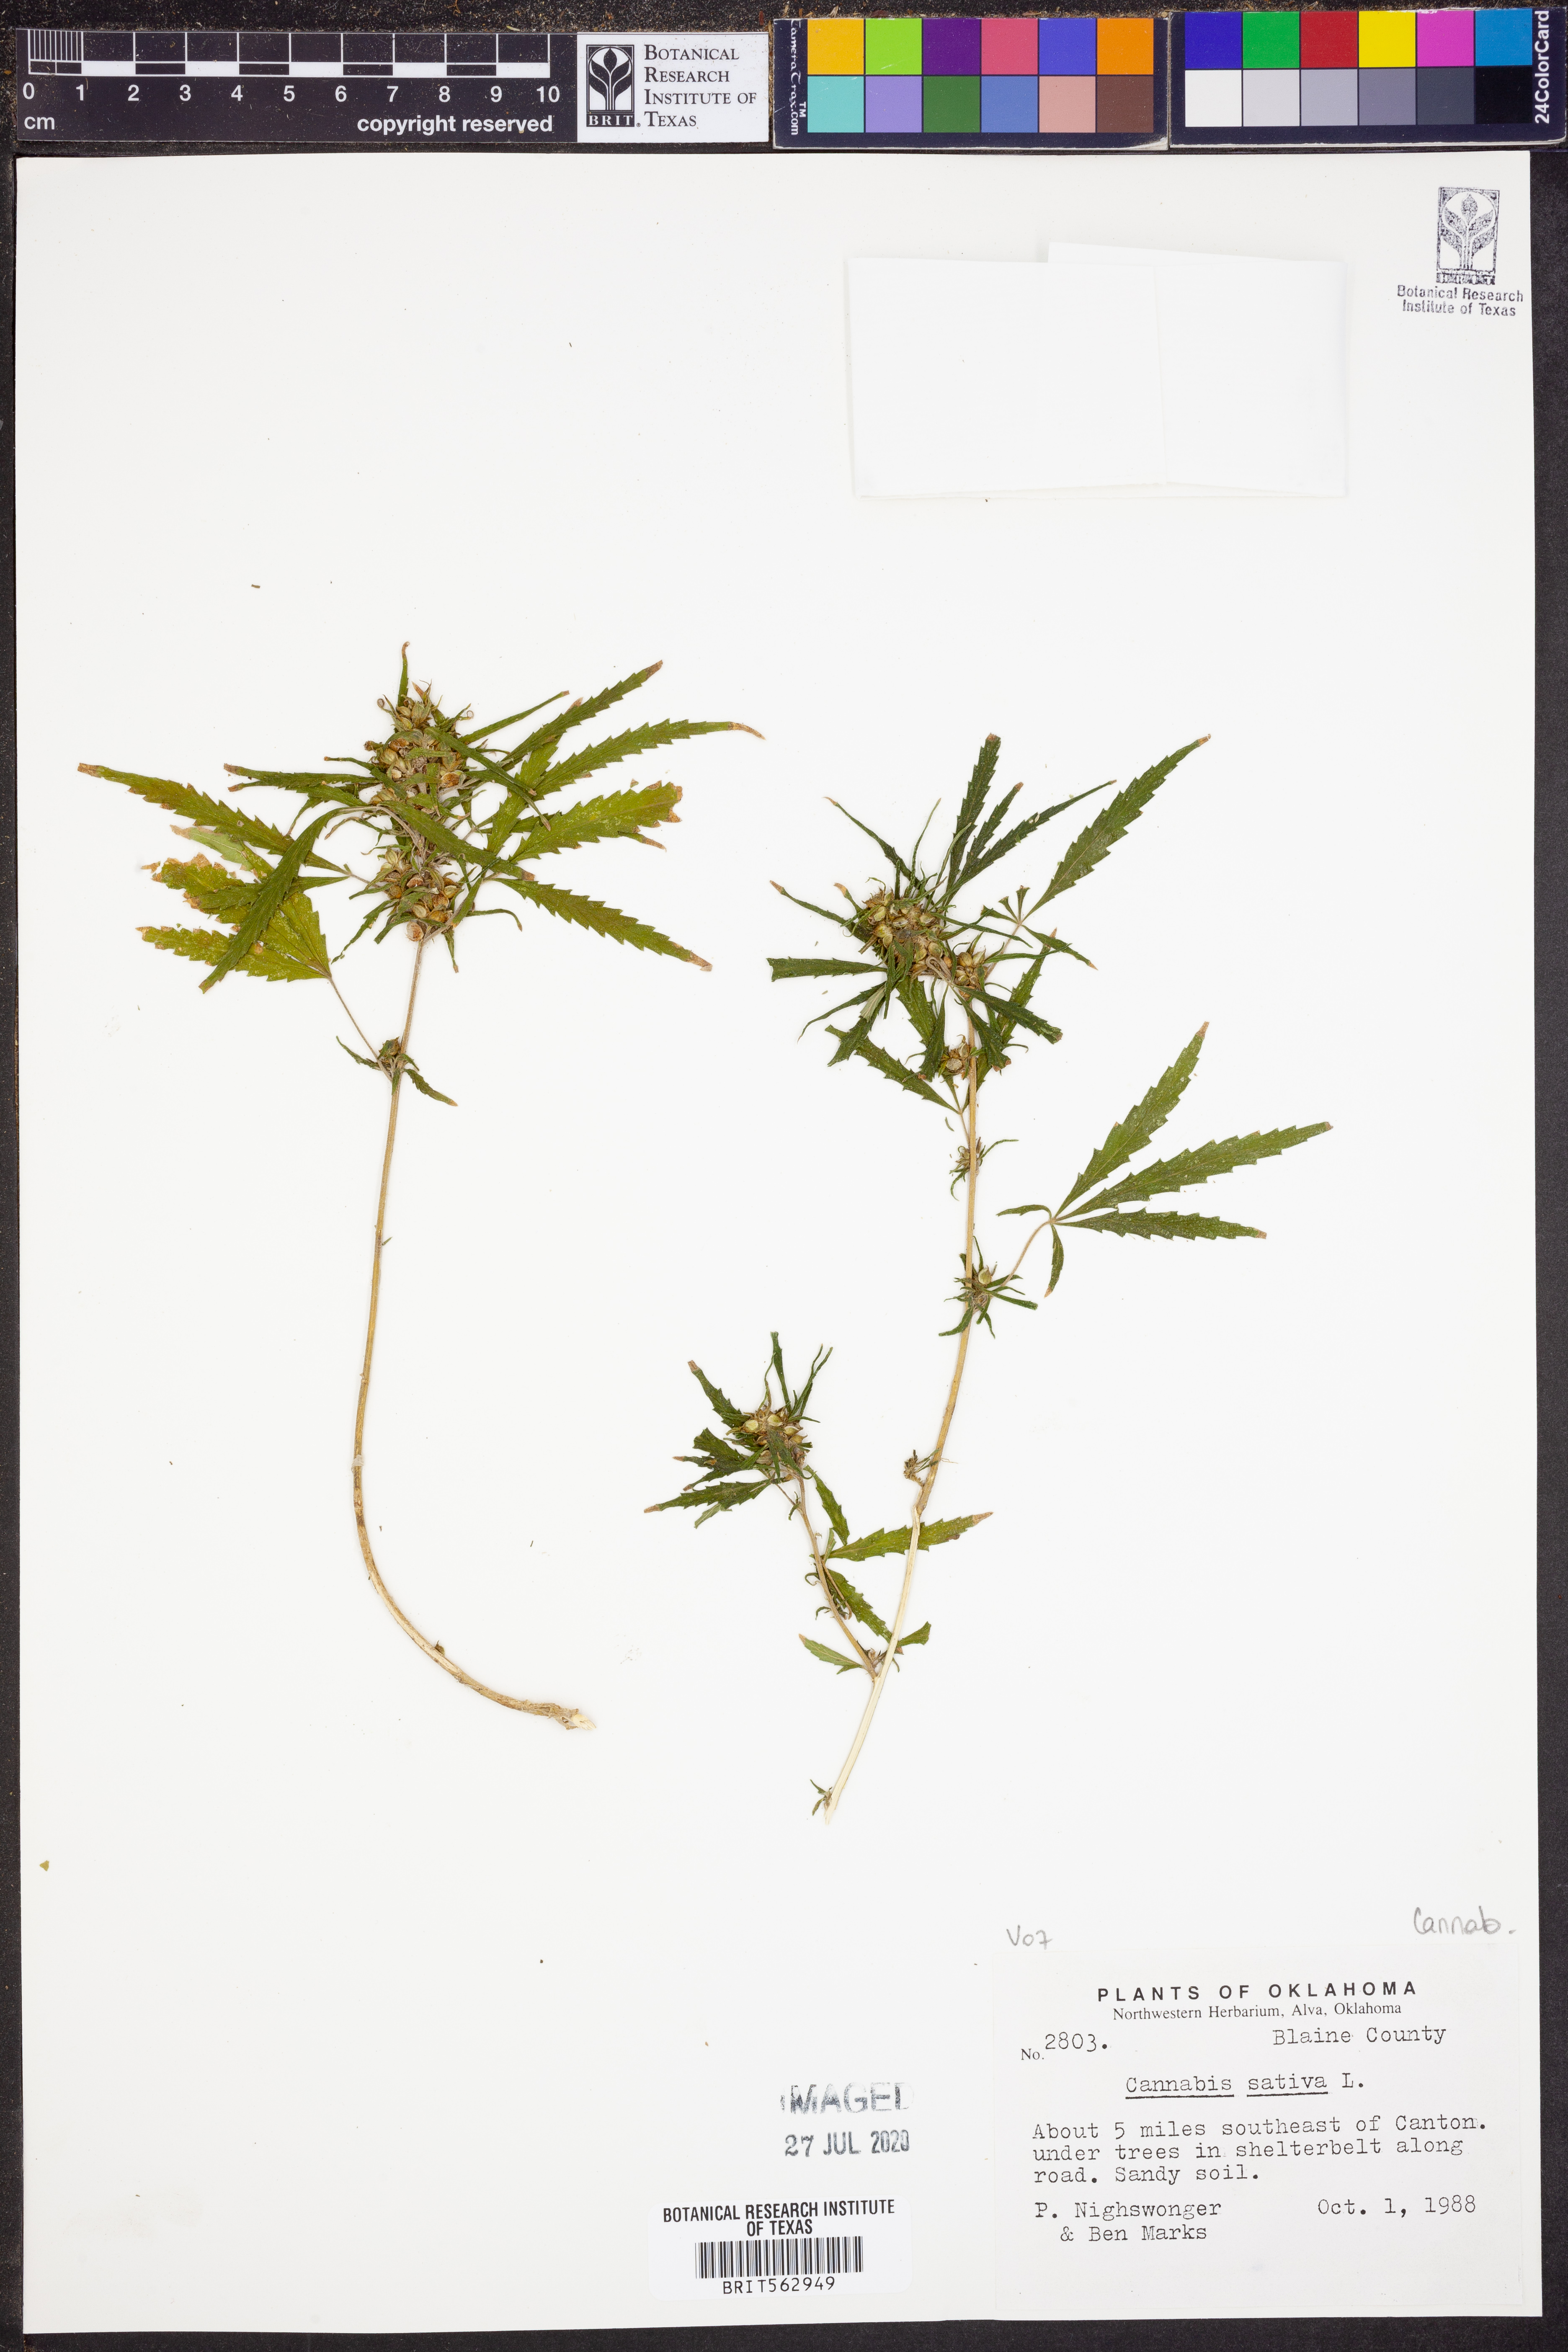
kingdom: Plantae
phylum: Tracheophyta
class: Magnoliopsida
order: Rosales
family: Cannabaceae
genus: Cannabis
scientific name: Cannabis sativa
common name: Hemp
